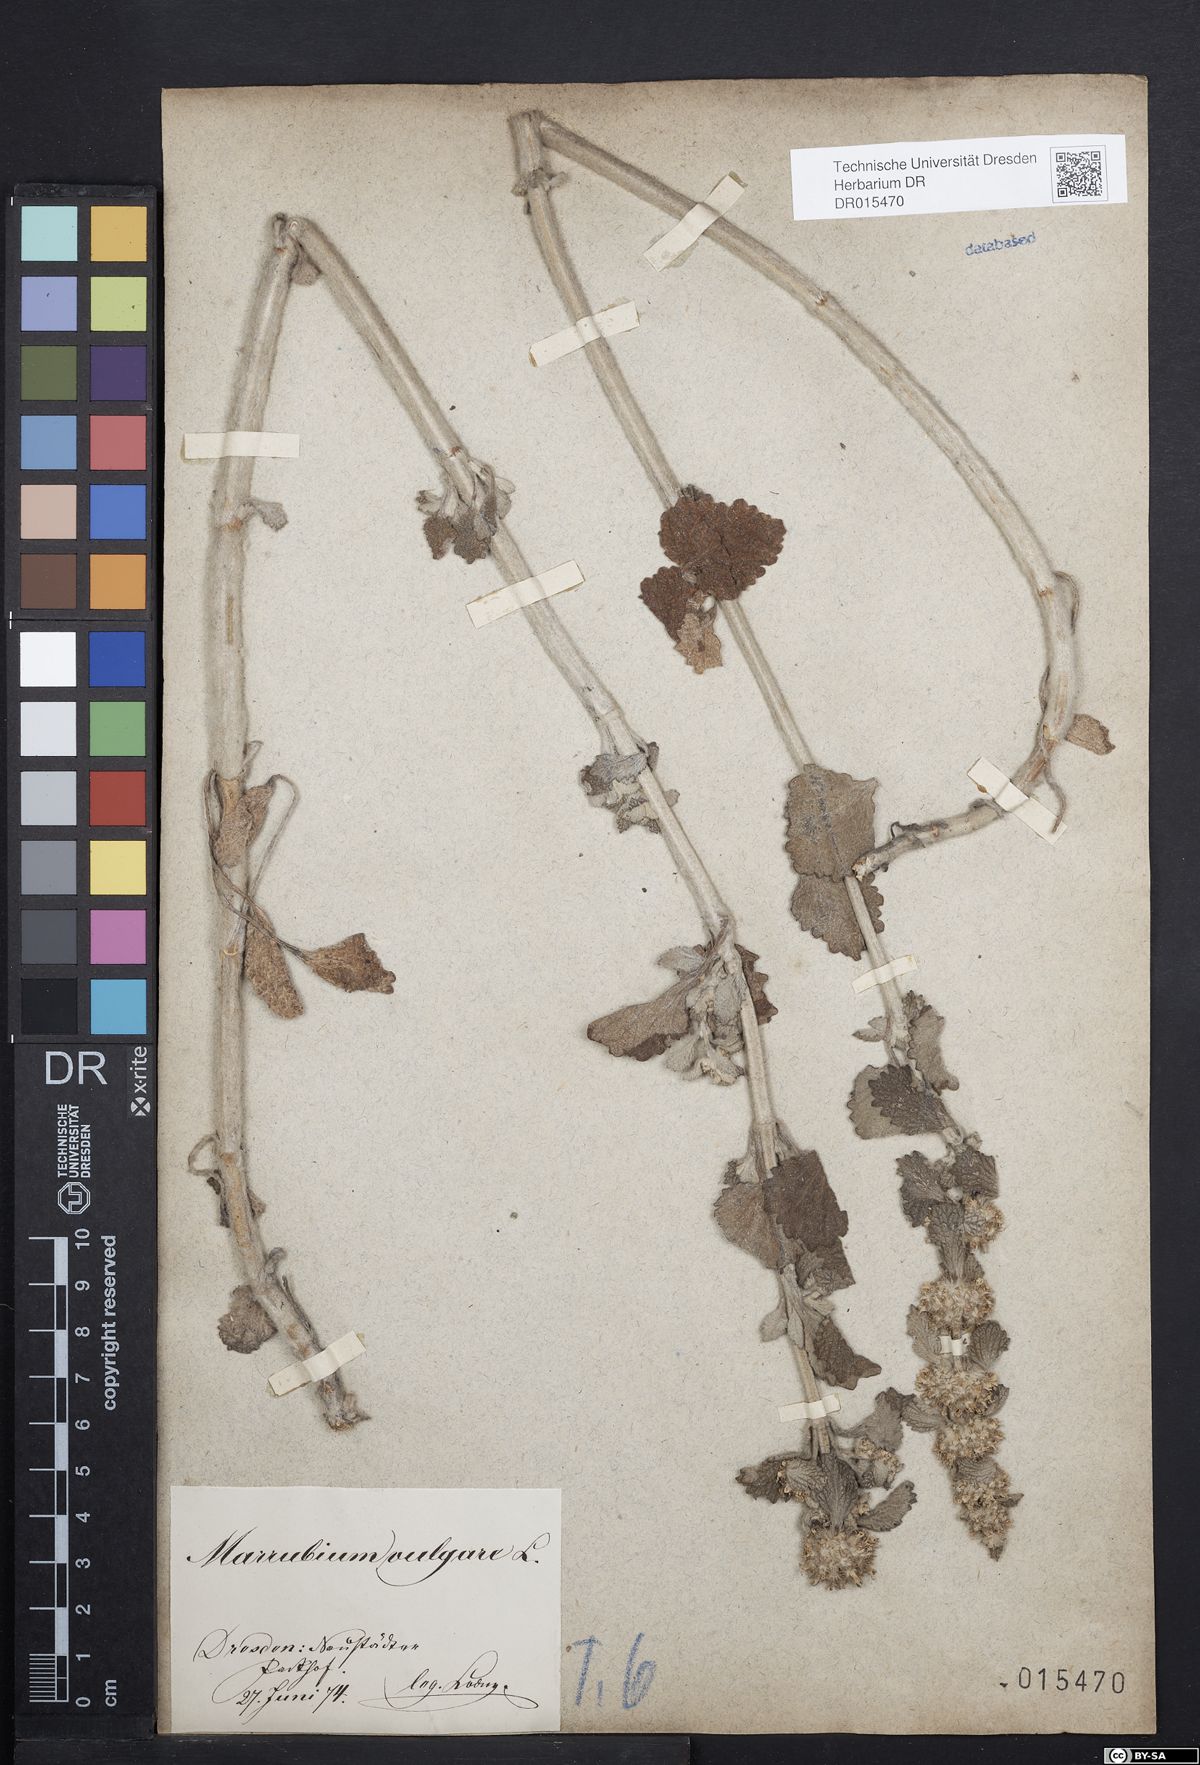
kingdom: Plantae
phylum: Tracheophyta
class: Magnoliopsida
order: Lamiales
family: Lamiaceae
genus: Marrubium
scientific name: Marrubium vulgare
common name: Horehound
